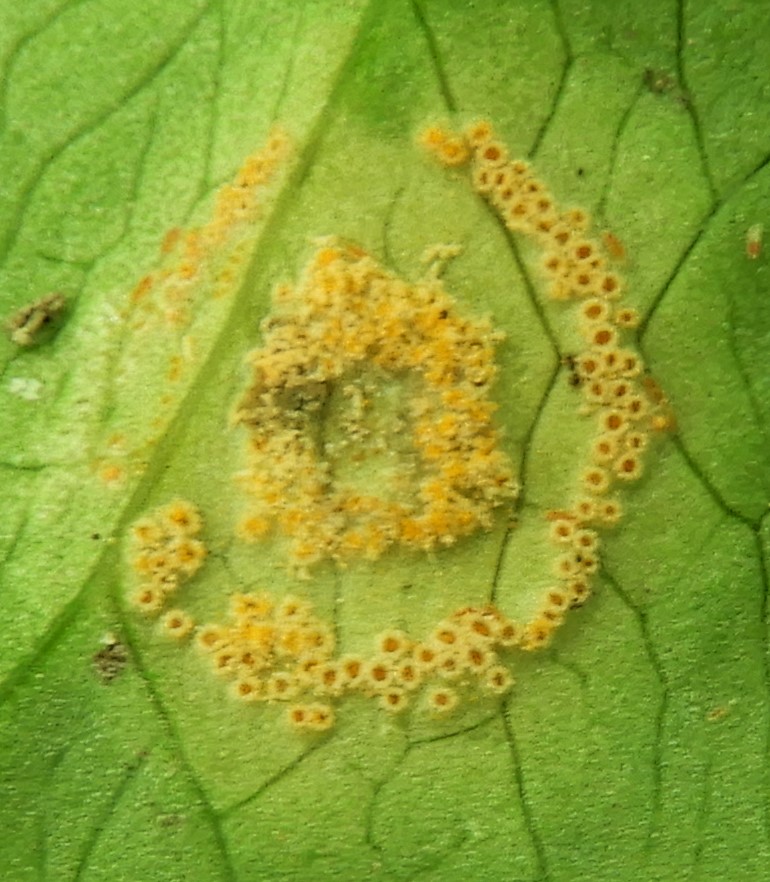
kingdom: Fungi
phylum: Basidiomycota
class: Pucciniomycetes
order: Pucciniales
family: Pucciniaceae
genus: Puccinia
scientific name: Puccinia sessilis
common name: Arum rust
